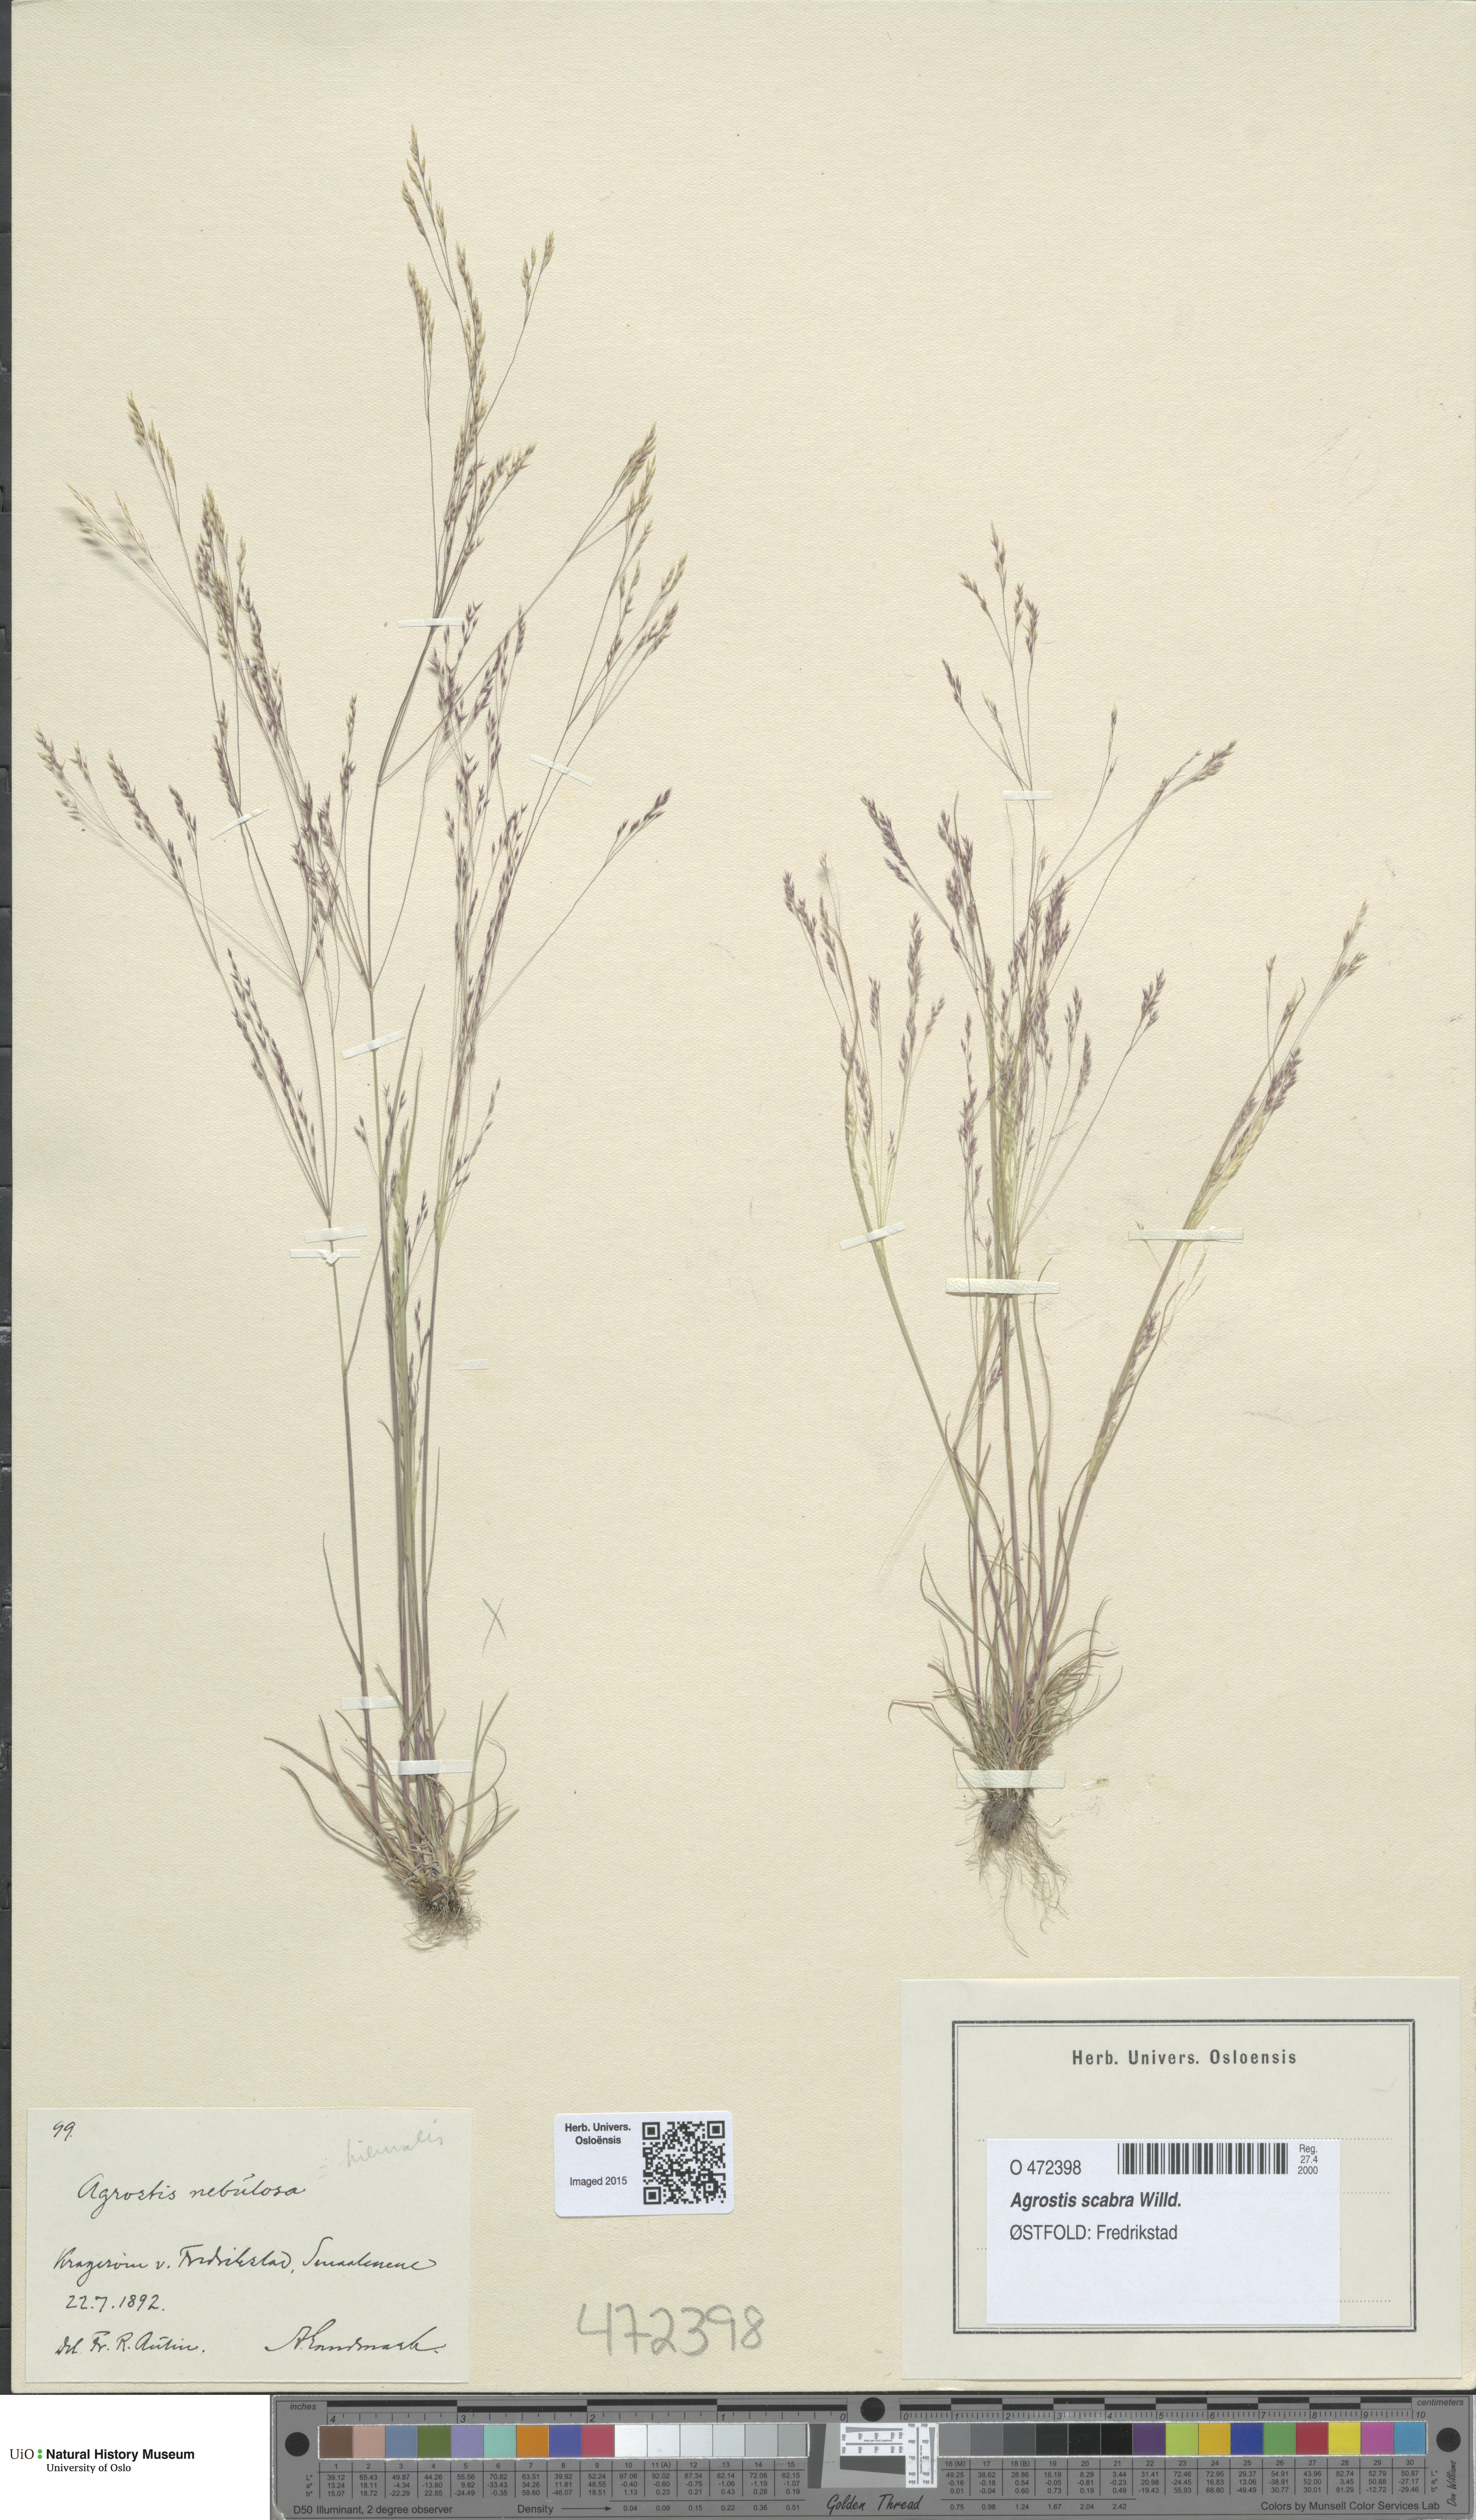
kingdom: Plantae
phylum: Tracheophyta
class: Liliopsida
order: Poales
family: Poaceae
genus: Agrostis
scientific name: Agrostis clavata
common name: Clavate bent
